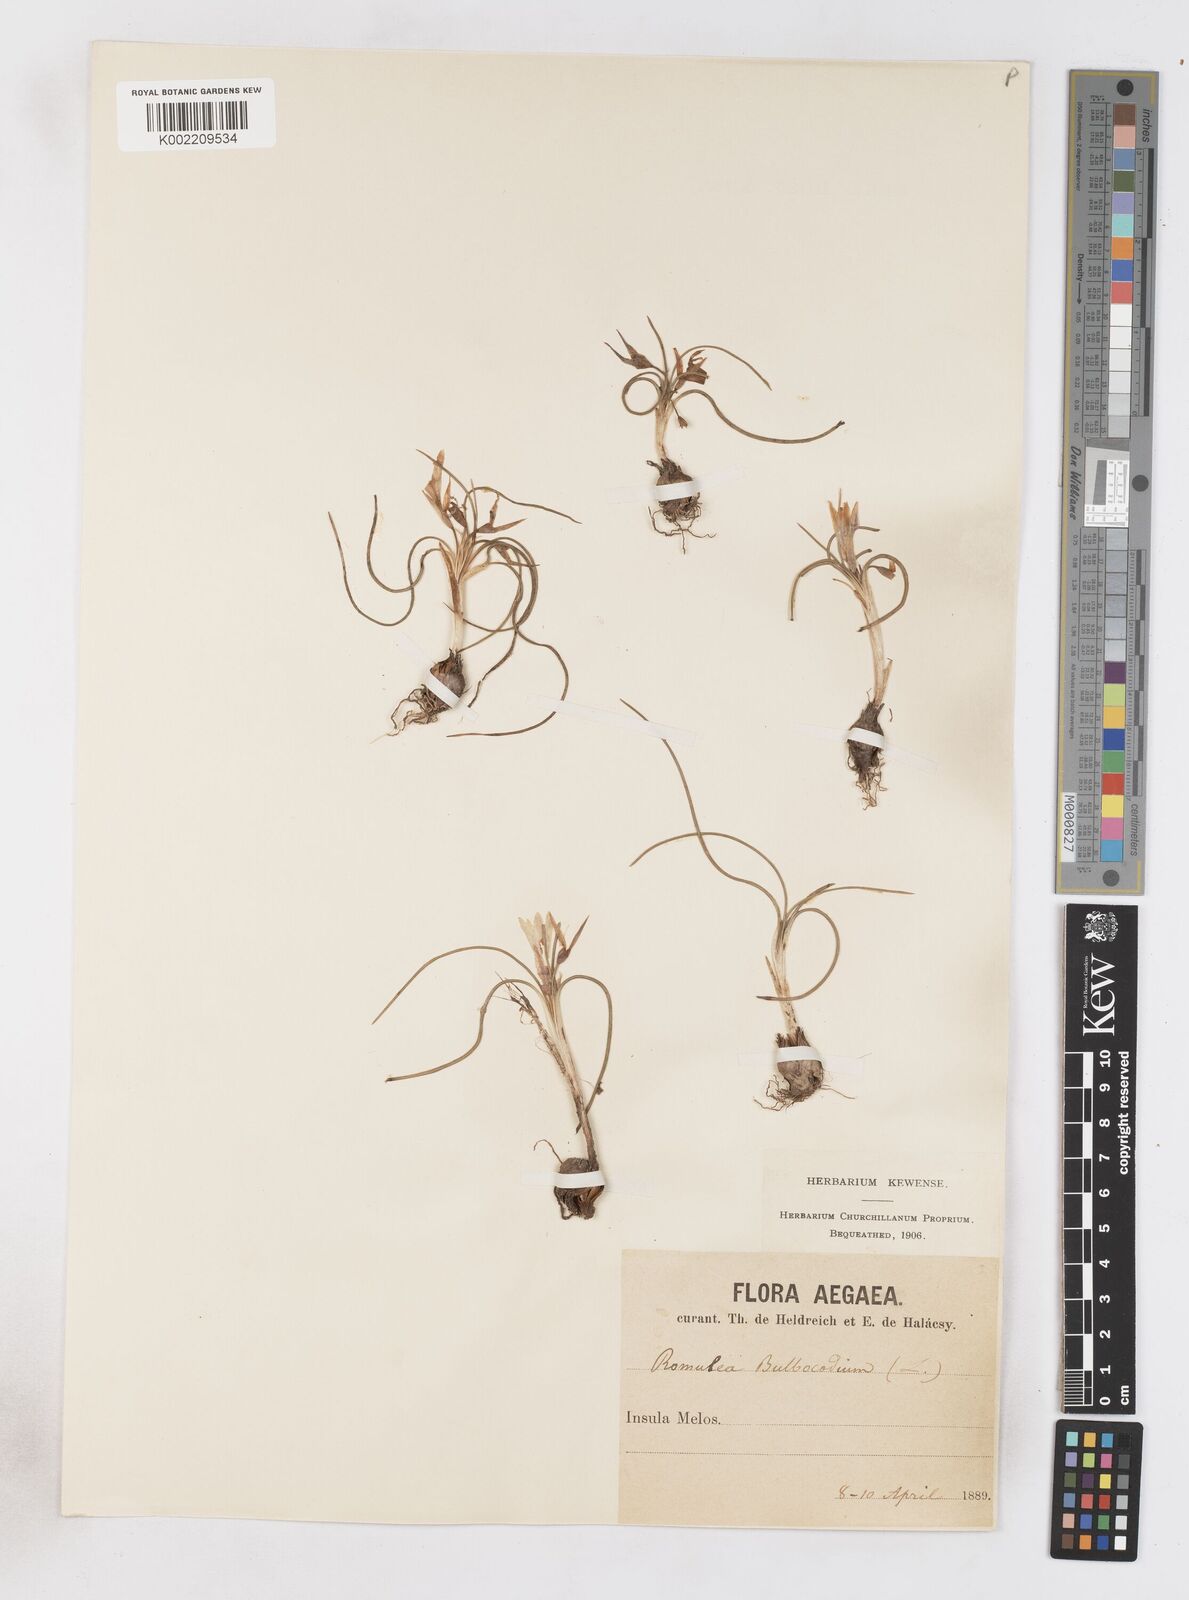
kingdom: Plantae
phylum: Tracheophyta
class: Liliopsida
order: Asparagales
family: Iridaceae
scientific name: Iridaceae
